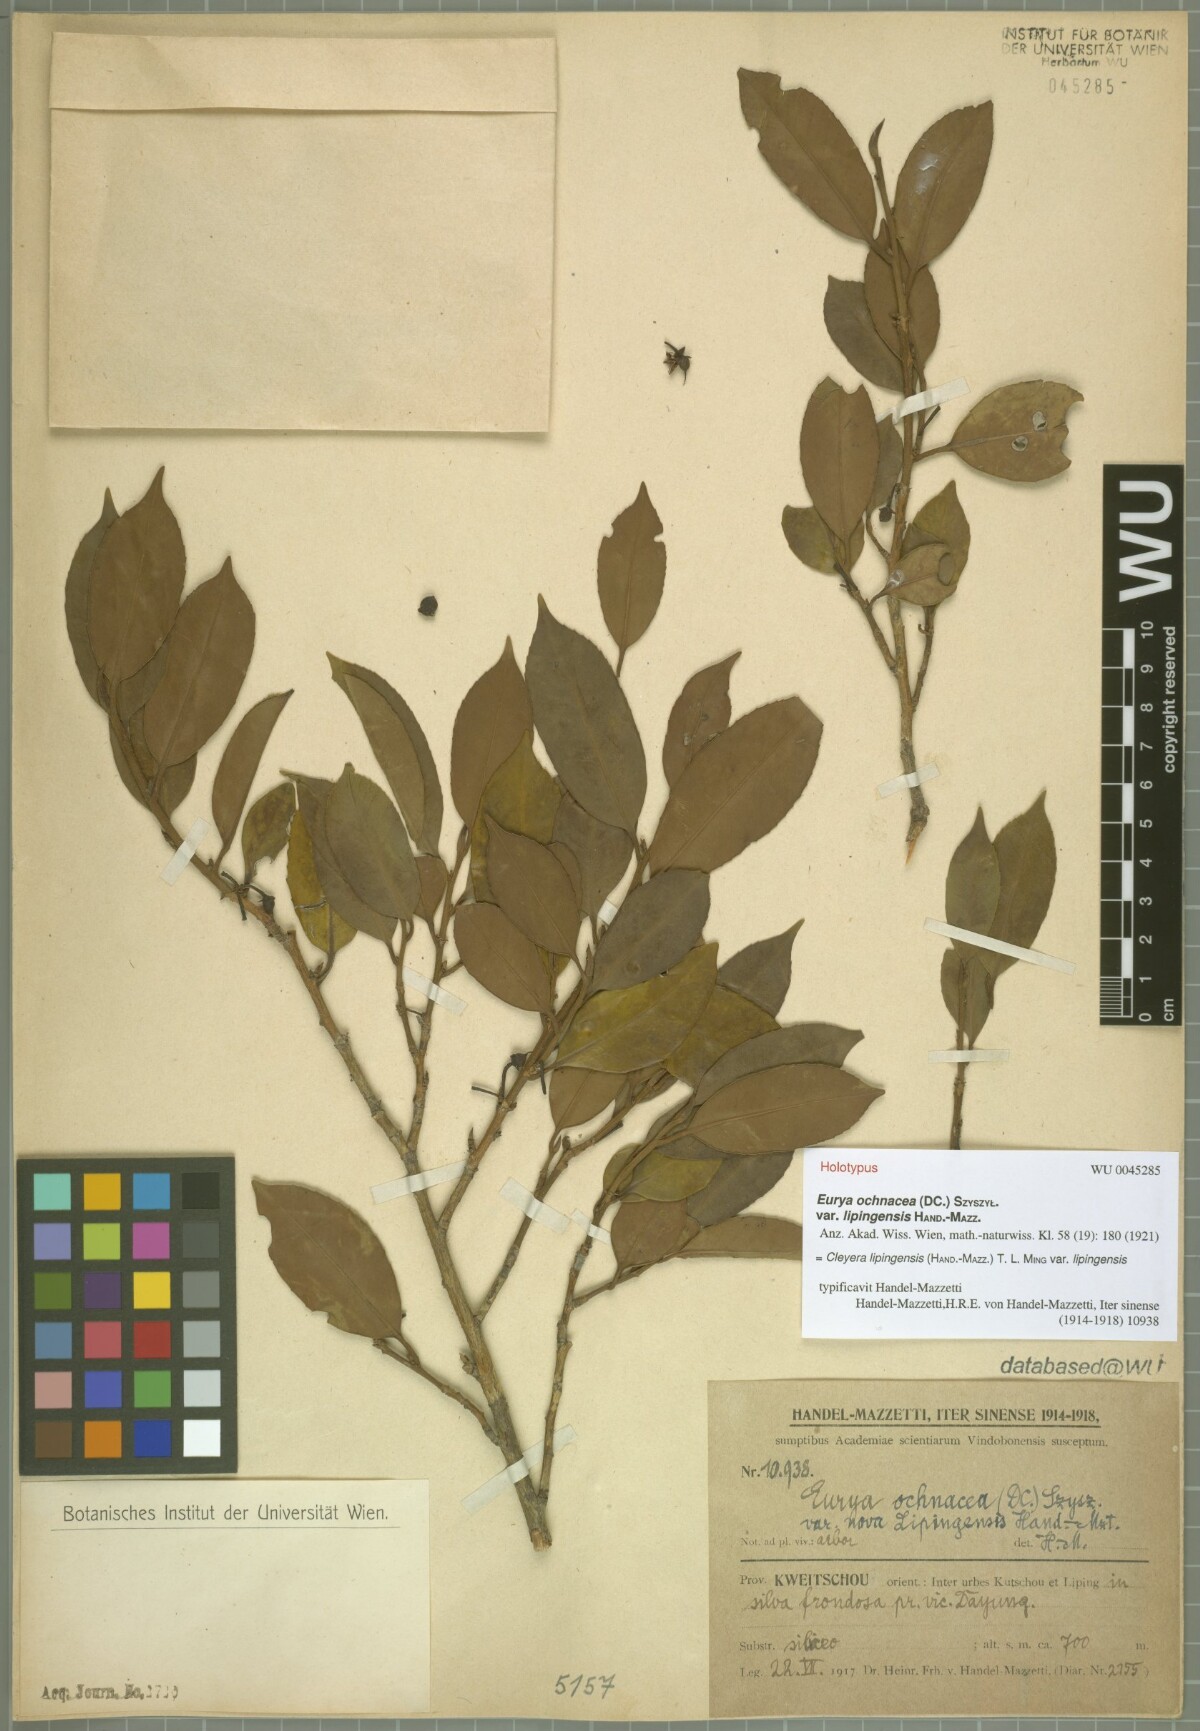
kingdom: Plantae
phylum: Tracheophyta
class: Magnoliopsida
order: Ericales
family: Pentaphylacaceae
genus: Cleyera
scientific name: Cleyera lipingensis
